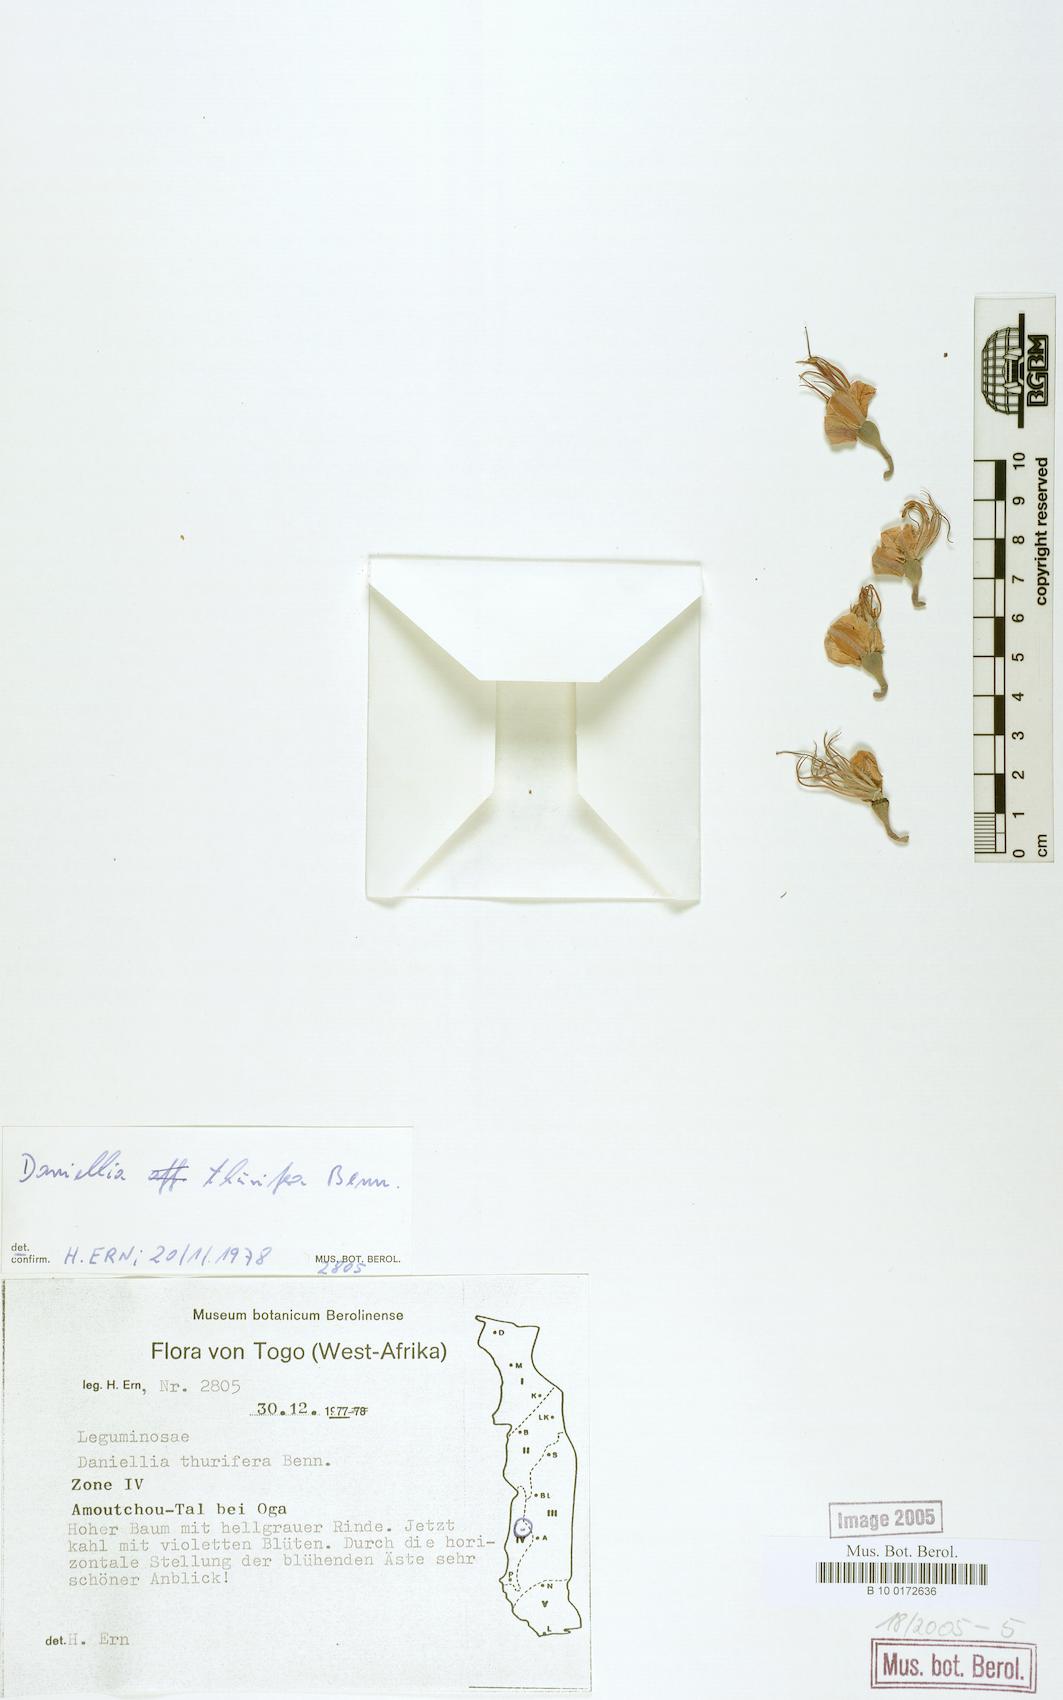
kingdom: Plantae
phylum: Tracheophyta
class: Magnoliopsida
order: Fabales
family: Fabaceae
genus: Daniellia
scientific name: Daniellia ogea
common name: Accra copal
